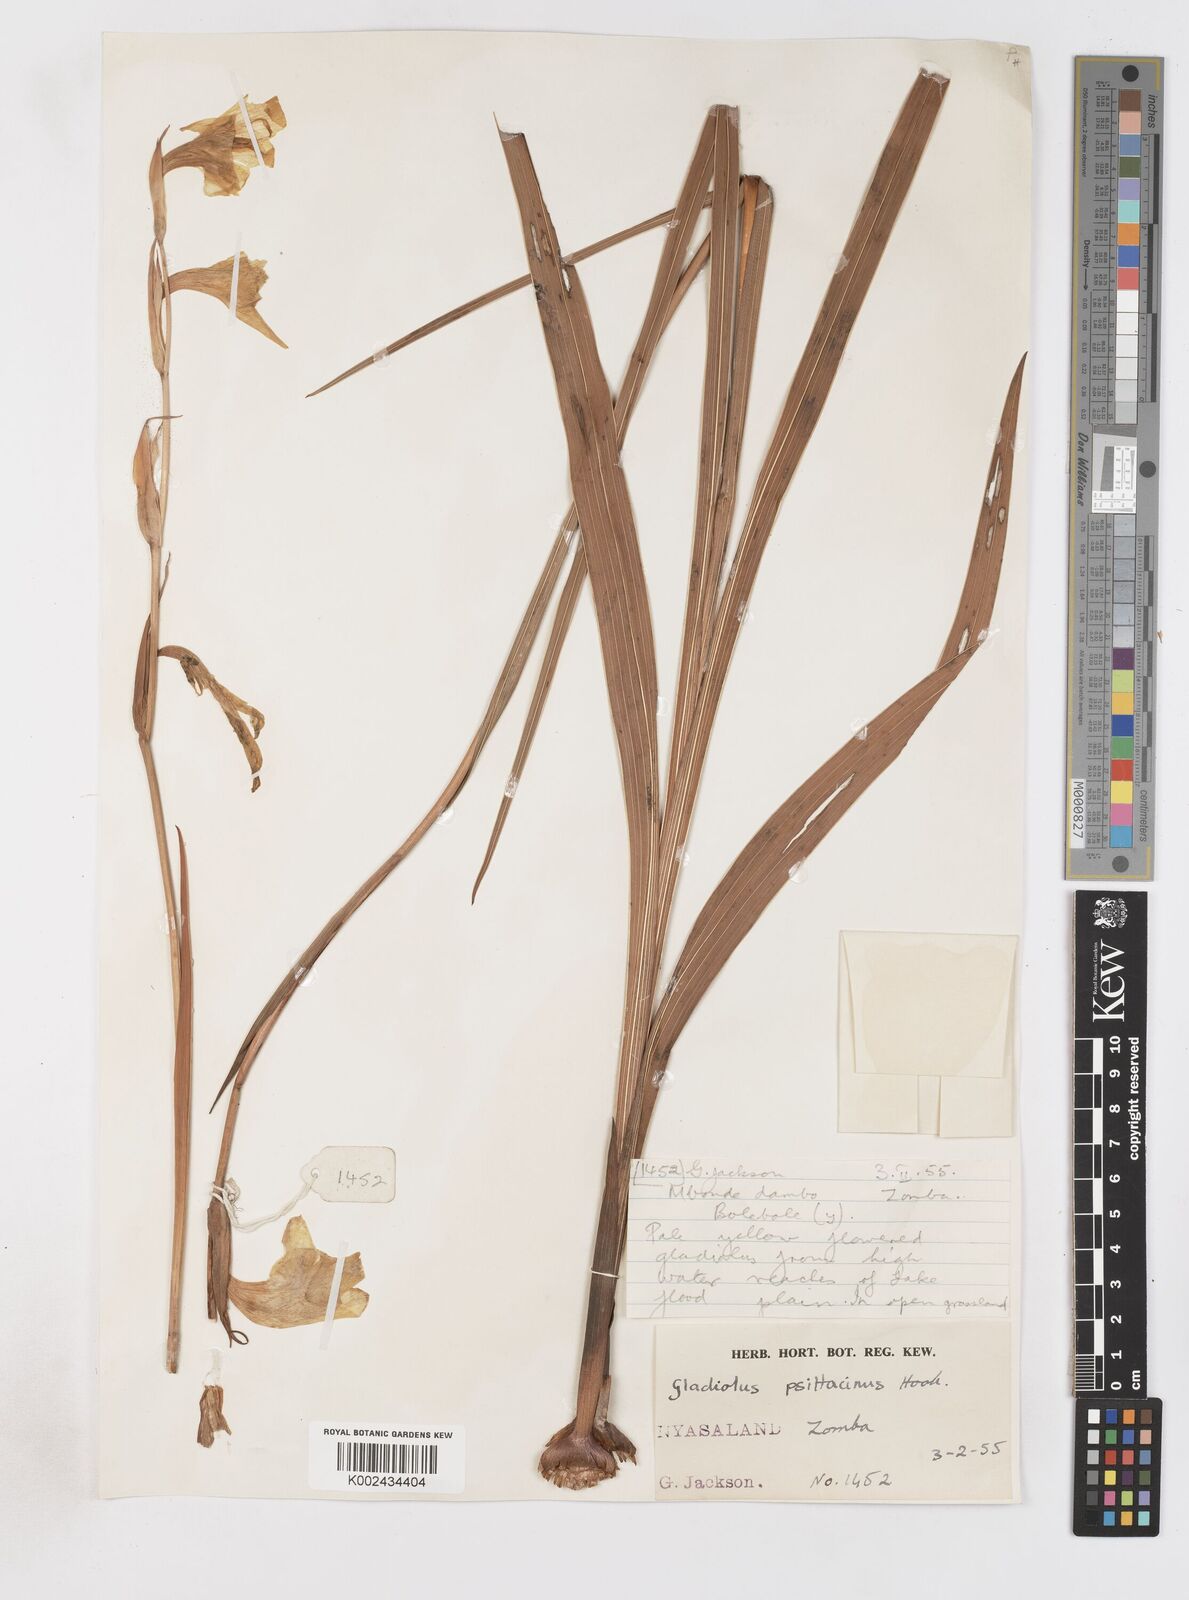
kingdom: Plantae
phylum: Tracheophyta
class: Liliopsida
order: Asparagales
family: Iridaceae
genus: Gladiolus
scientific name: Gladiolus dalenii
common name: Cornflag
